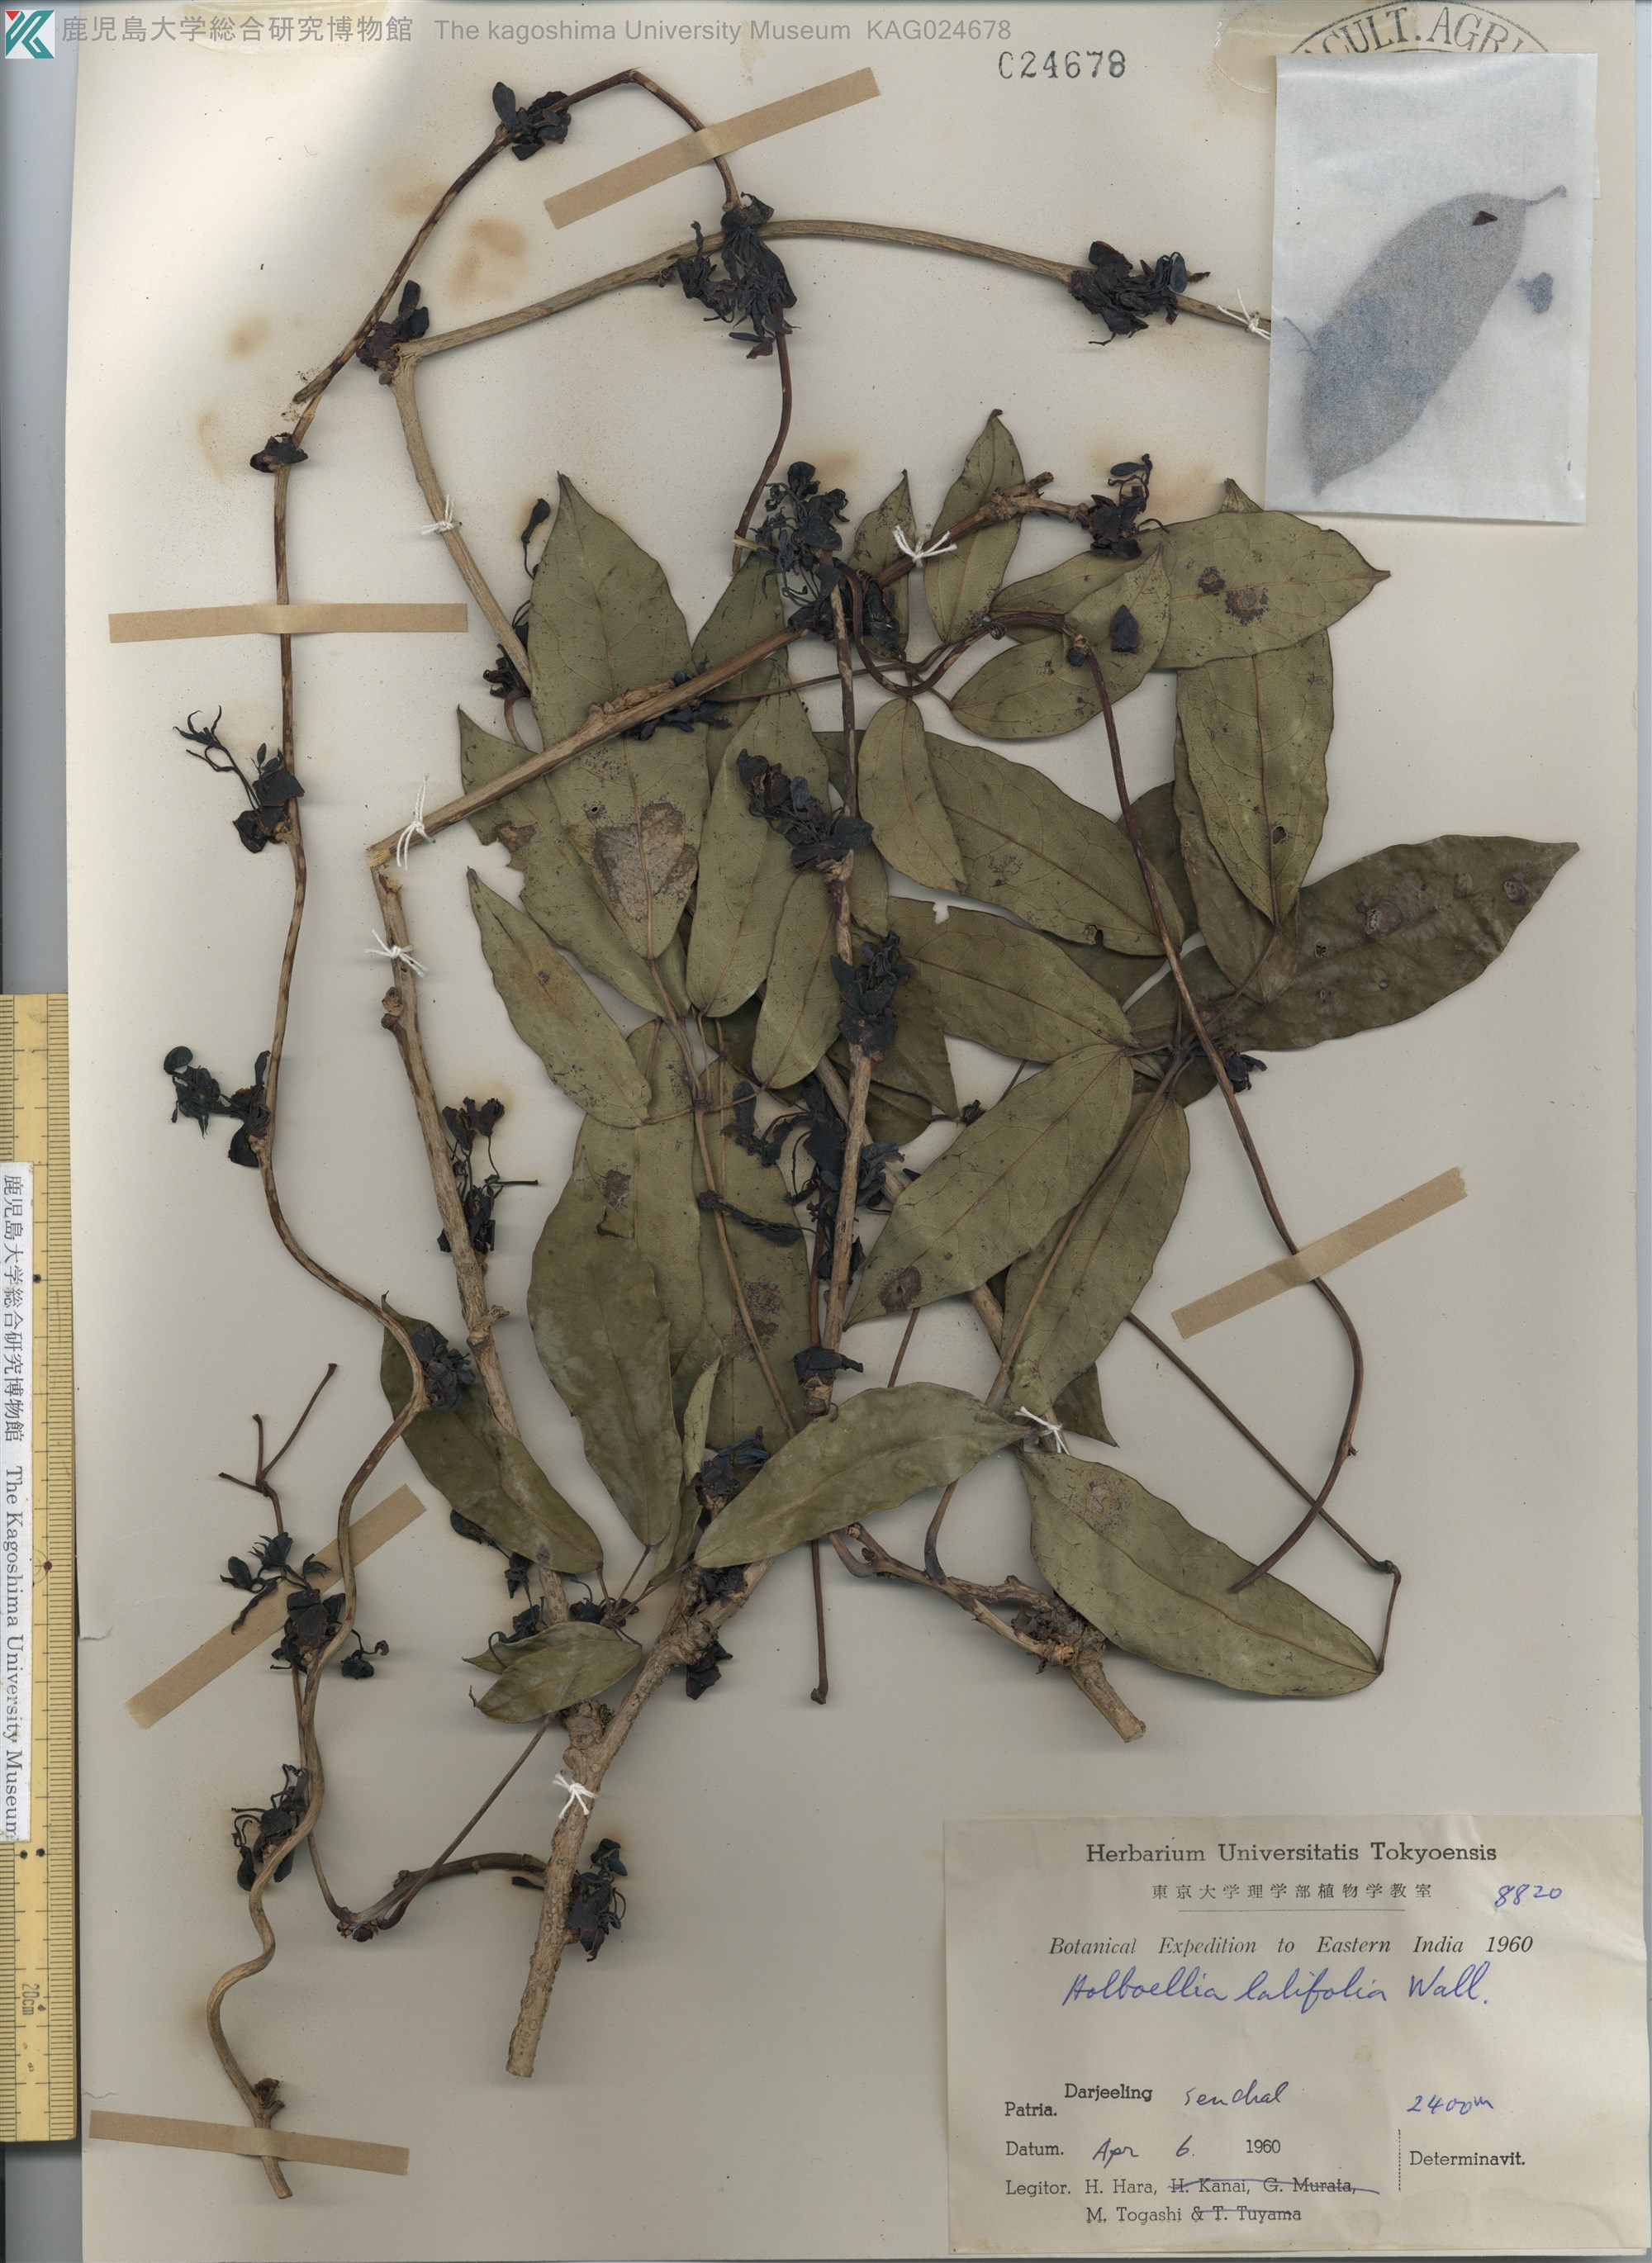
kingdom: Plantae
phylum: Tracheophyta
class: Magnoliopsida
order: Ranunculales
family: Lardizabalaceae
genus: Akebia
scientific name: Akebia longeracemosa
